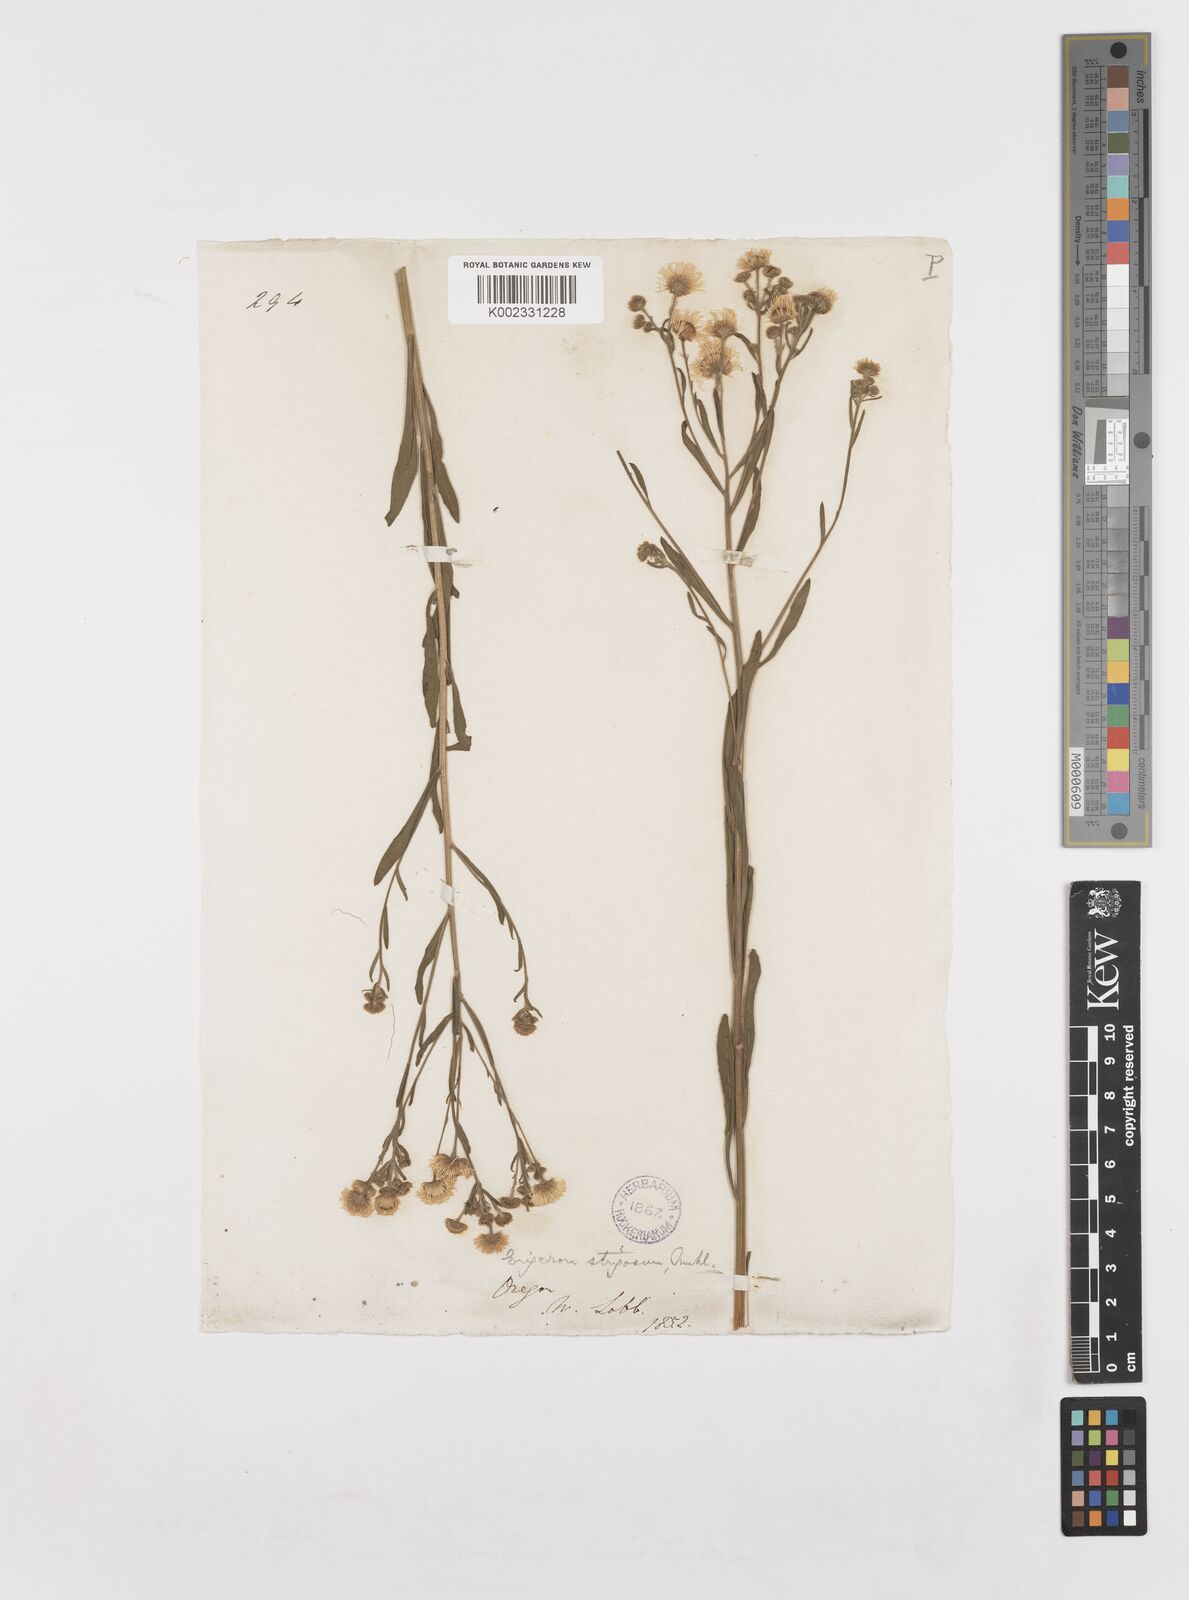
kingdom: Plantae
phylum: Tracheophyta
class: Magnoliopsida
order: Asterales
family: Asteraceae
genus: Erigeron
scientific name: Erigeron strigosus
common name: Common eastern fleabane
